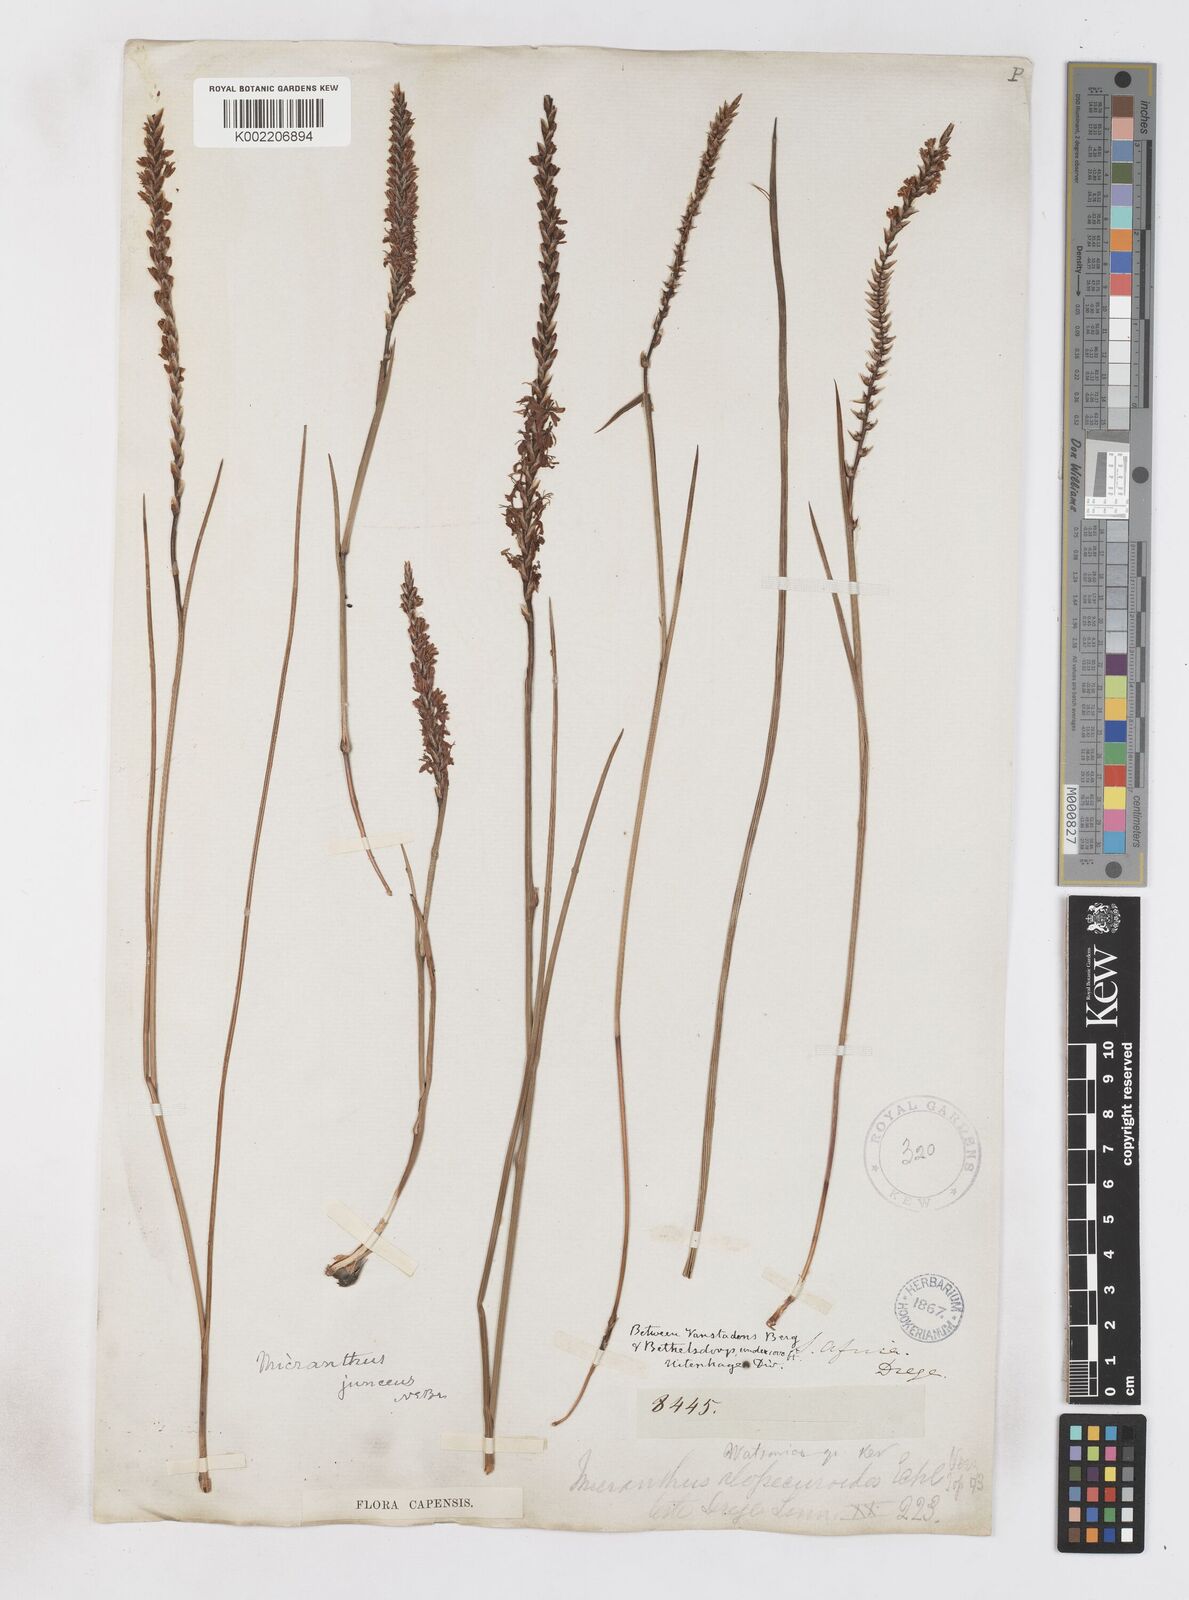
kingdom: Plantae
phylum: Tracheophyta
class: Liliopsida
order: Asparagales
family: Iridaceae
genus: Micranthus
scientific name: Micranthus plantagineus
